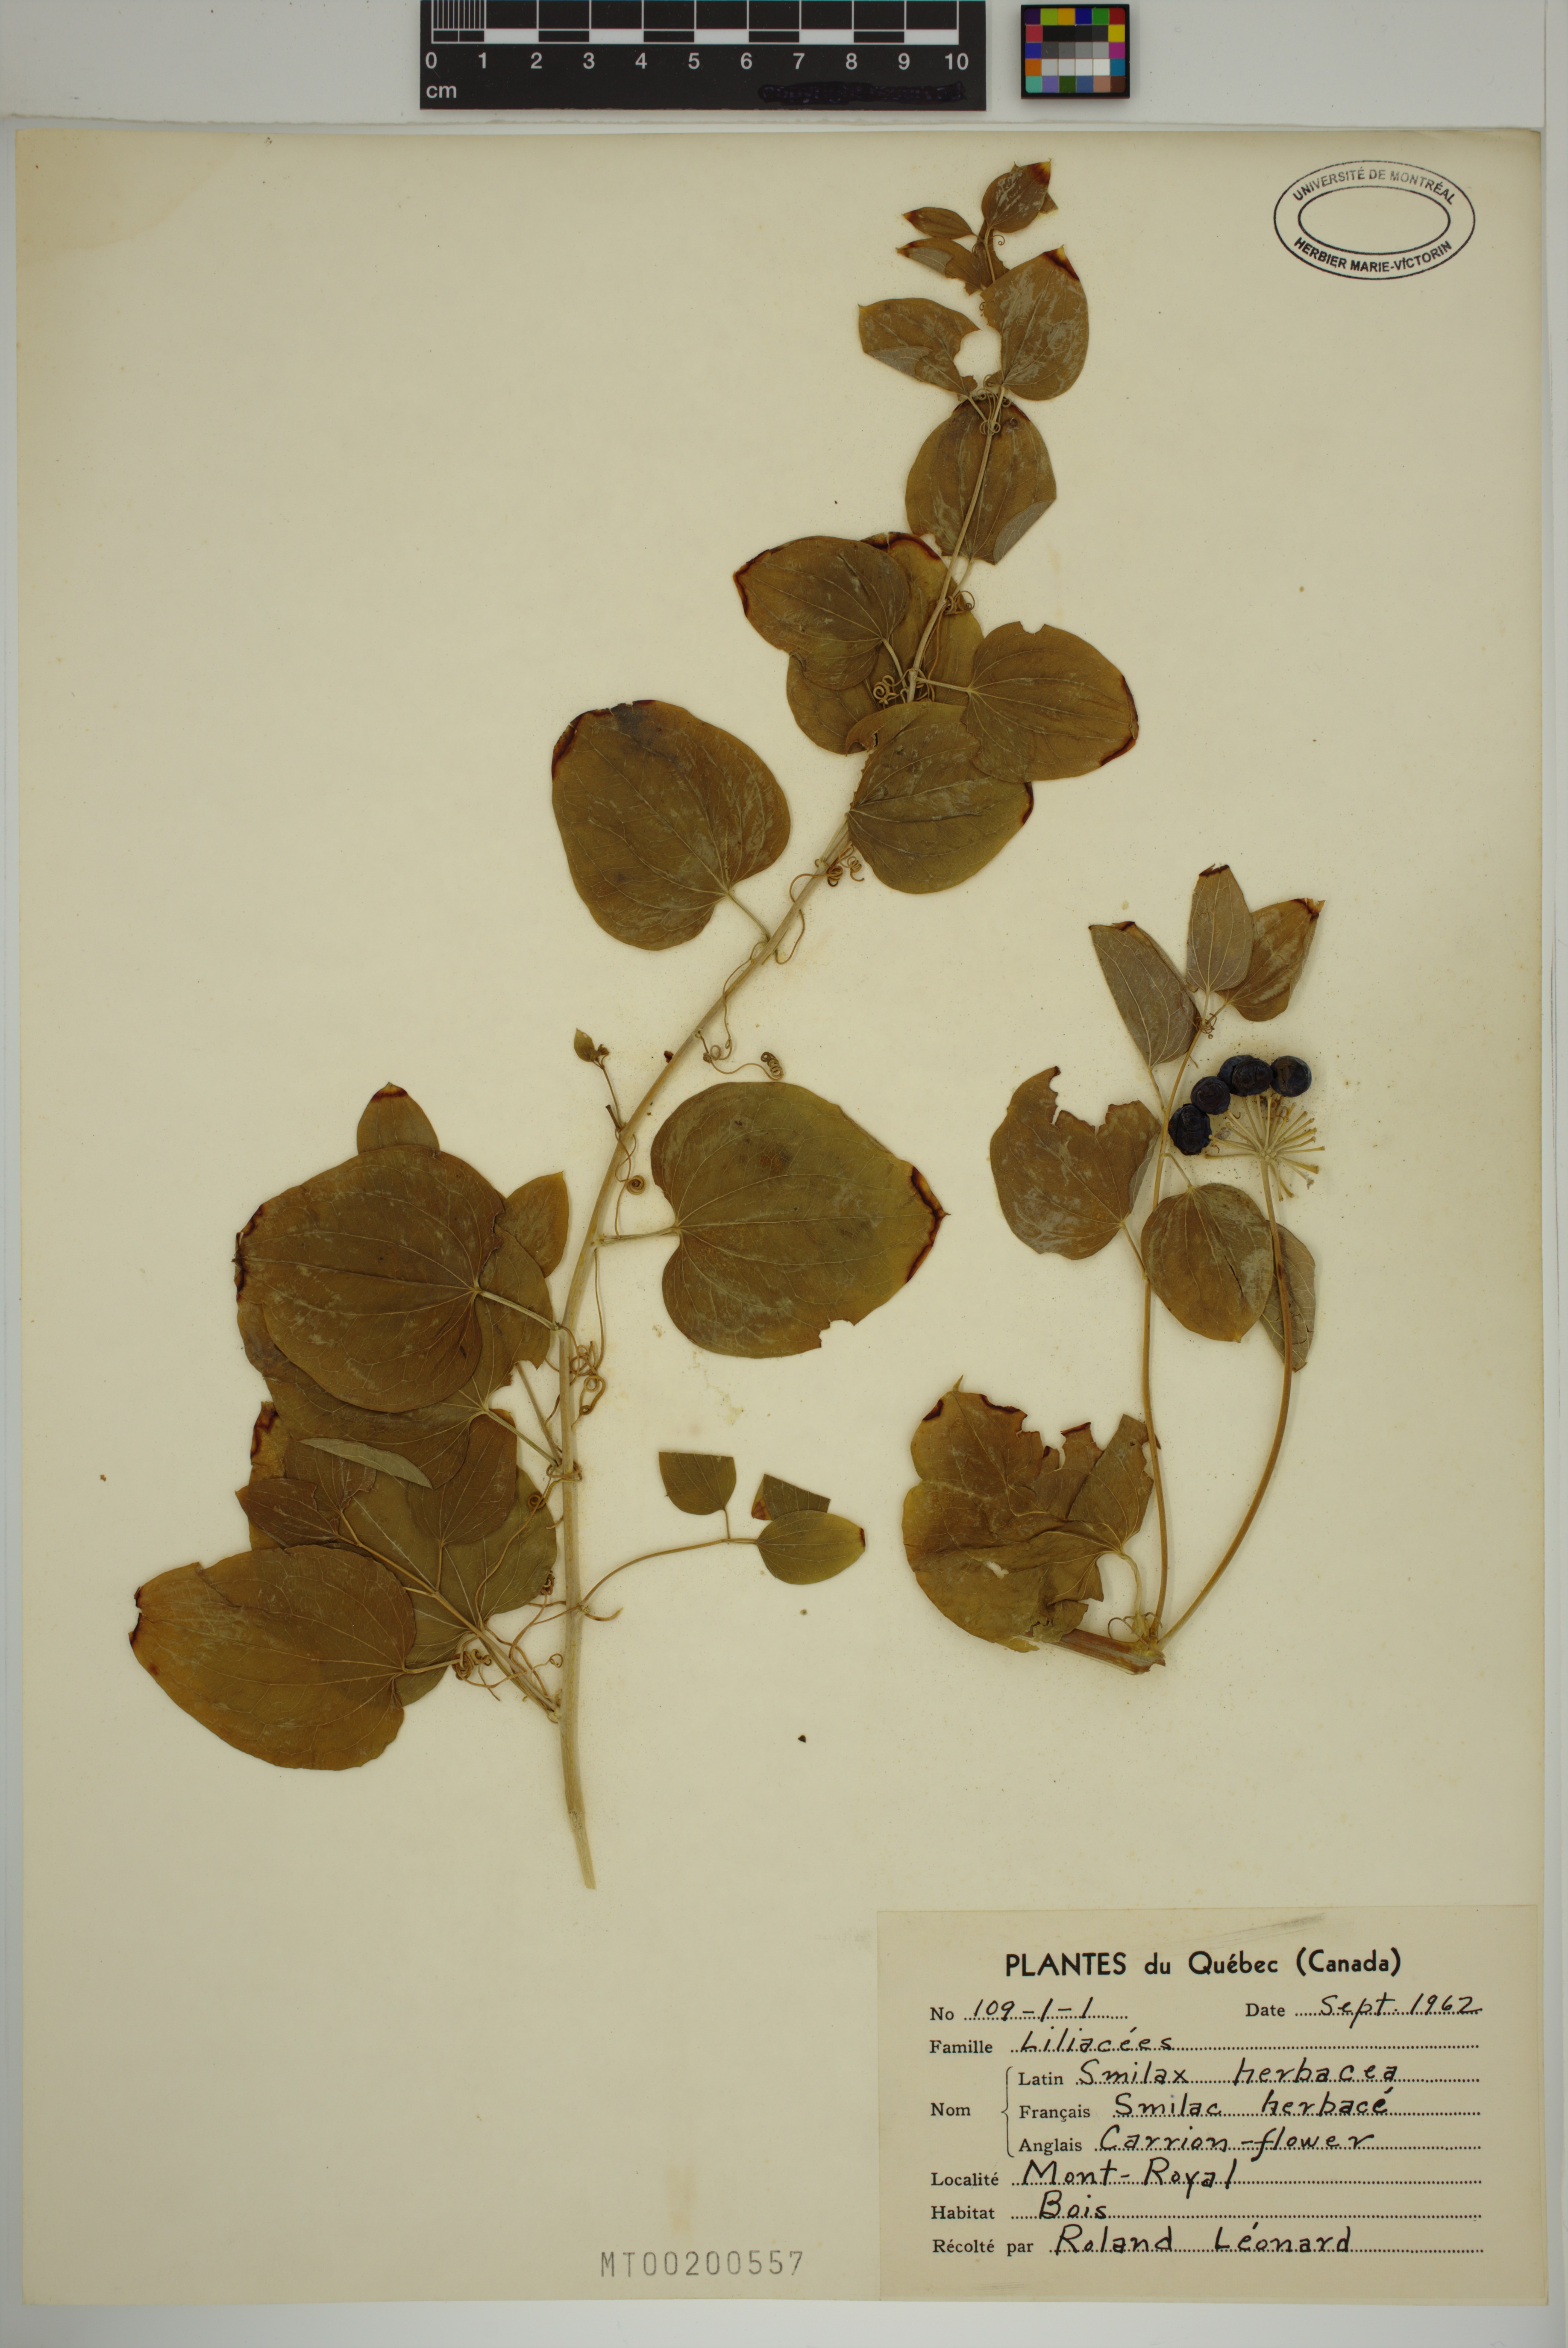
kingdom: Plantae
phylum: Tracheophyta
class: Liliopsida
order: Liliales
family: Smilacaceae
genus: Smilax
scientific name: Smilax herbacea
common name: Jacob's-ladder
